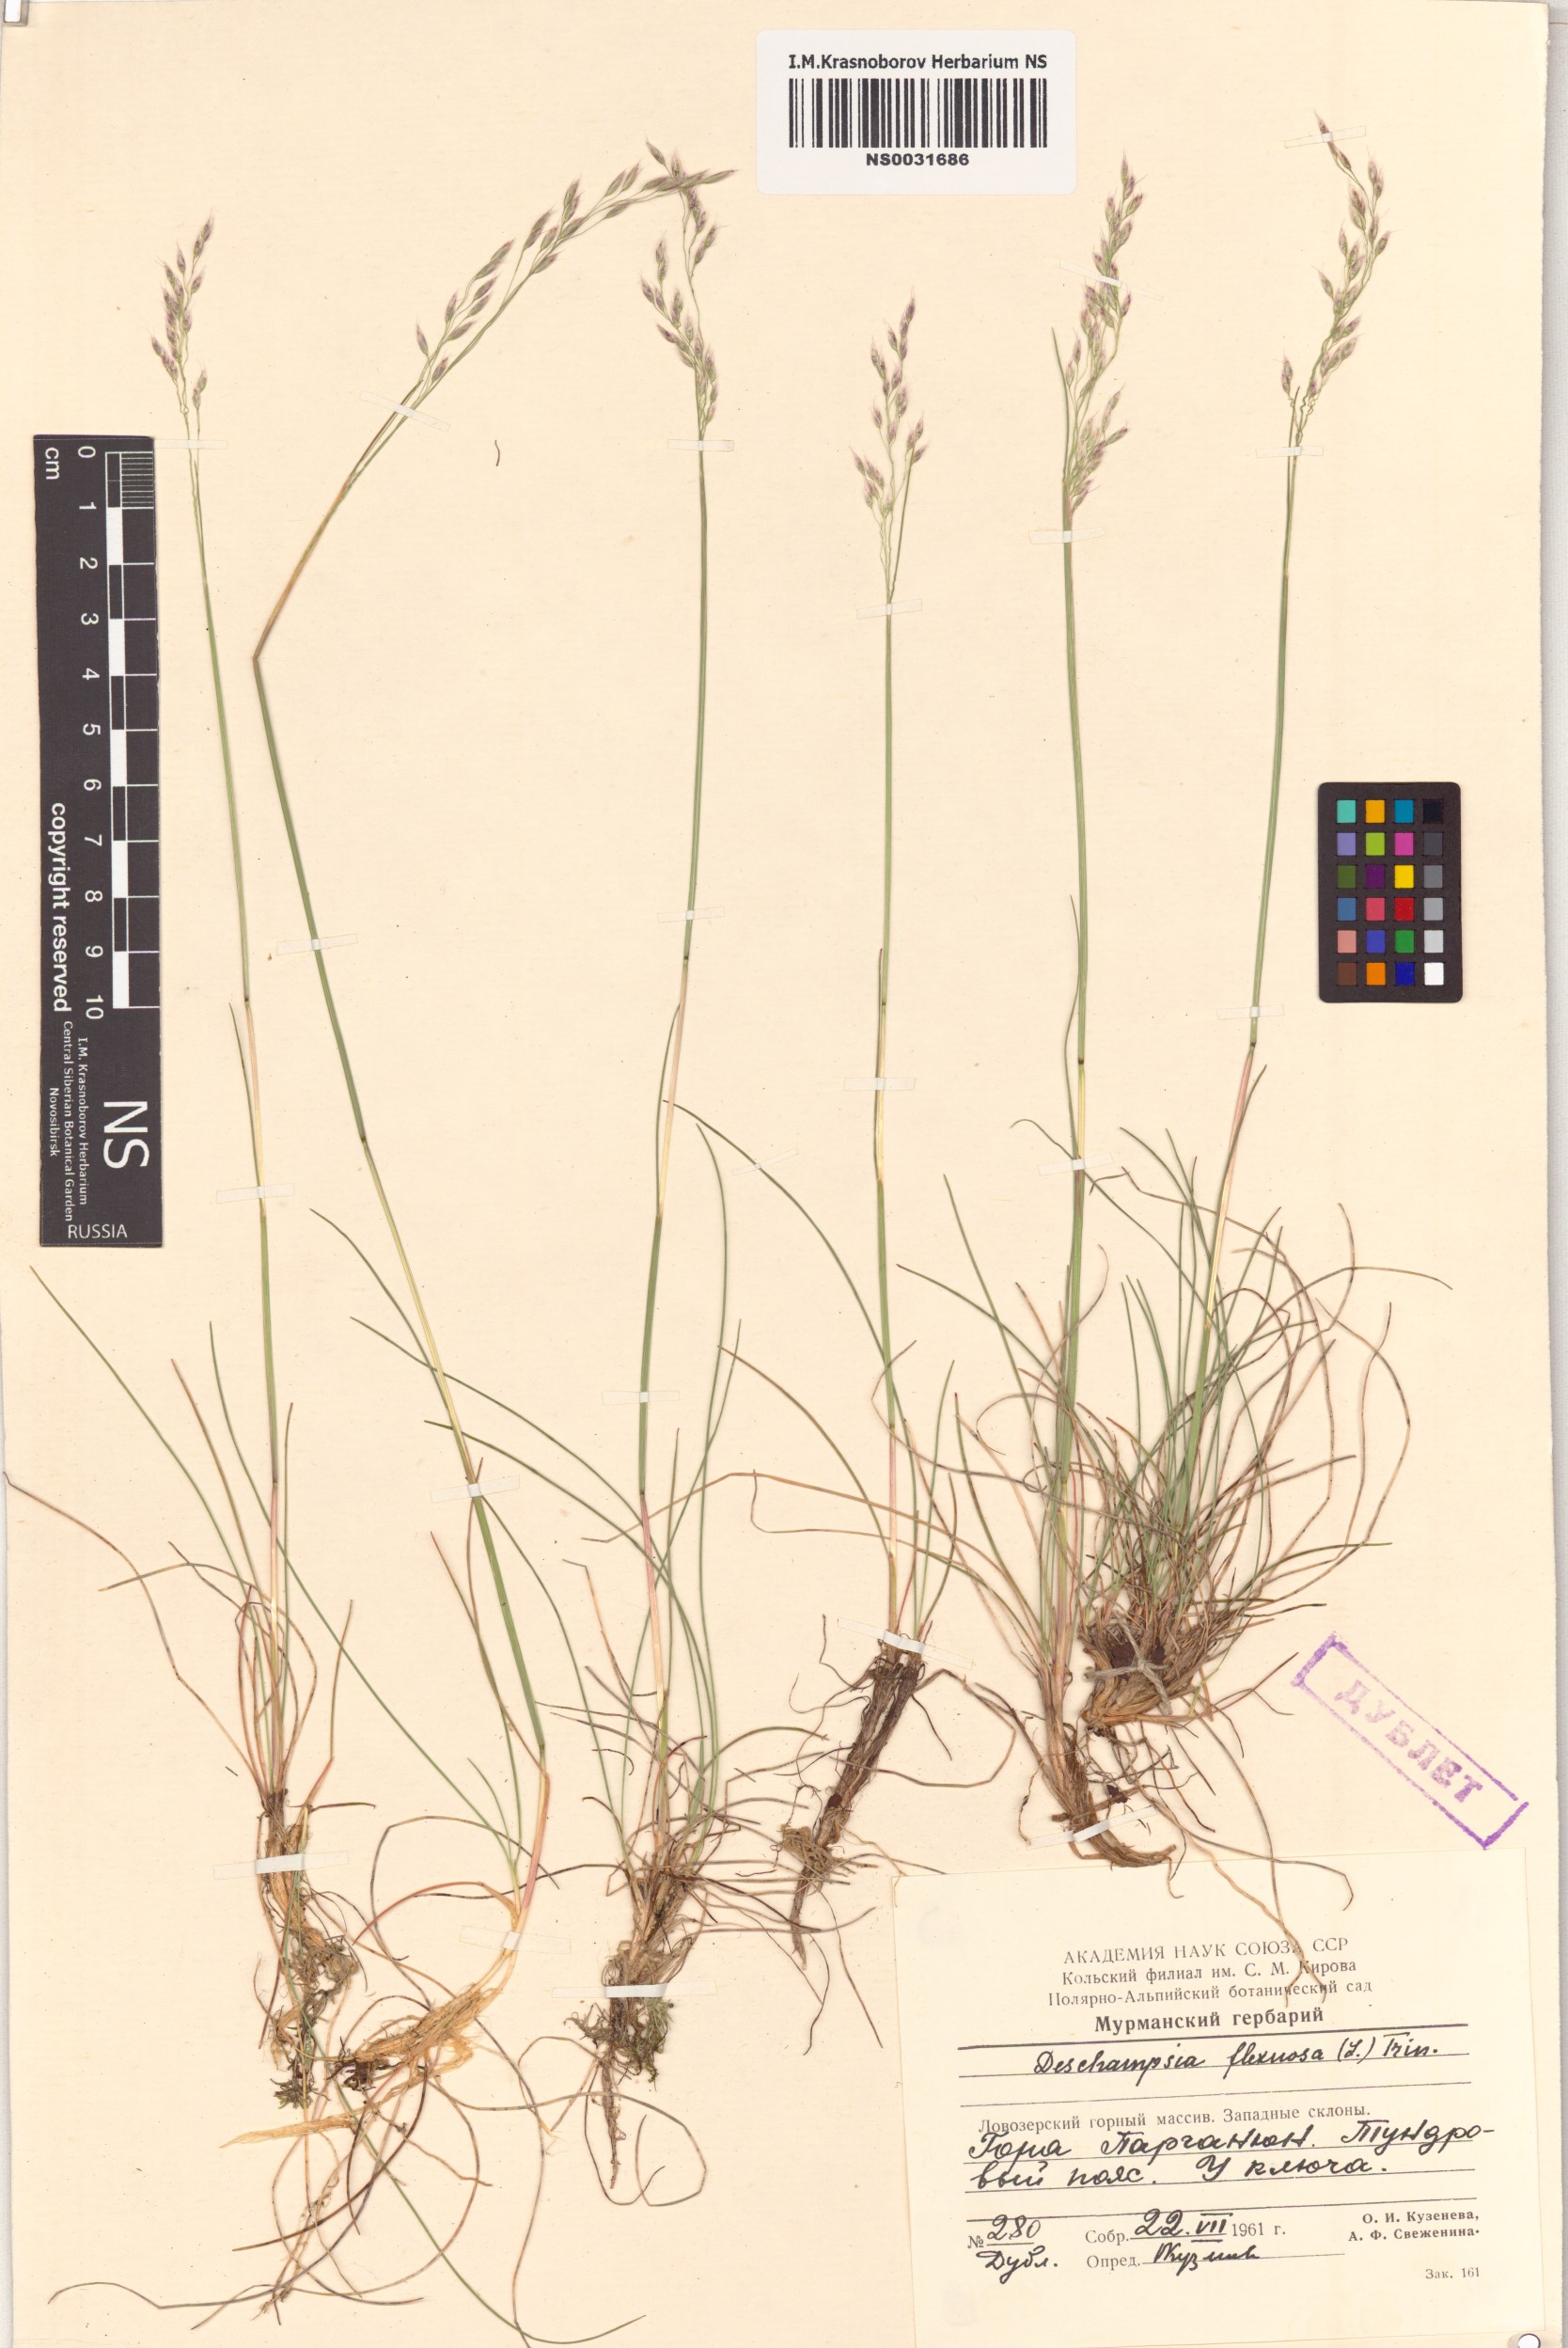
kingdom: Plantae
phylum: Tracheophyta
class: Liliopsida
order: Poales
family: Poaceae
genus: Avenella
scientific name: Avenella flexuosa
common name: Wavy hairgrass
